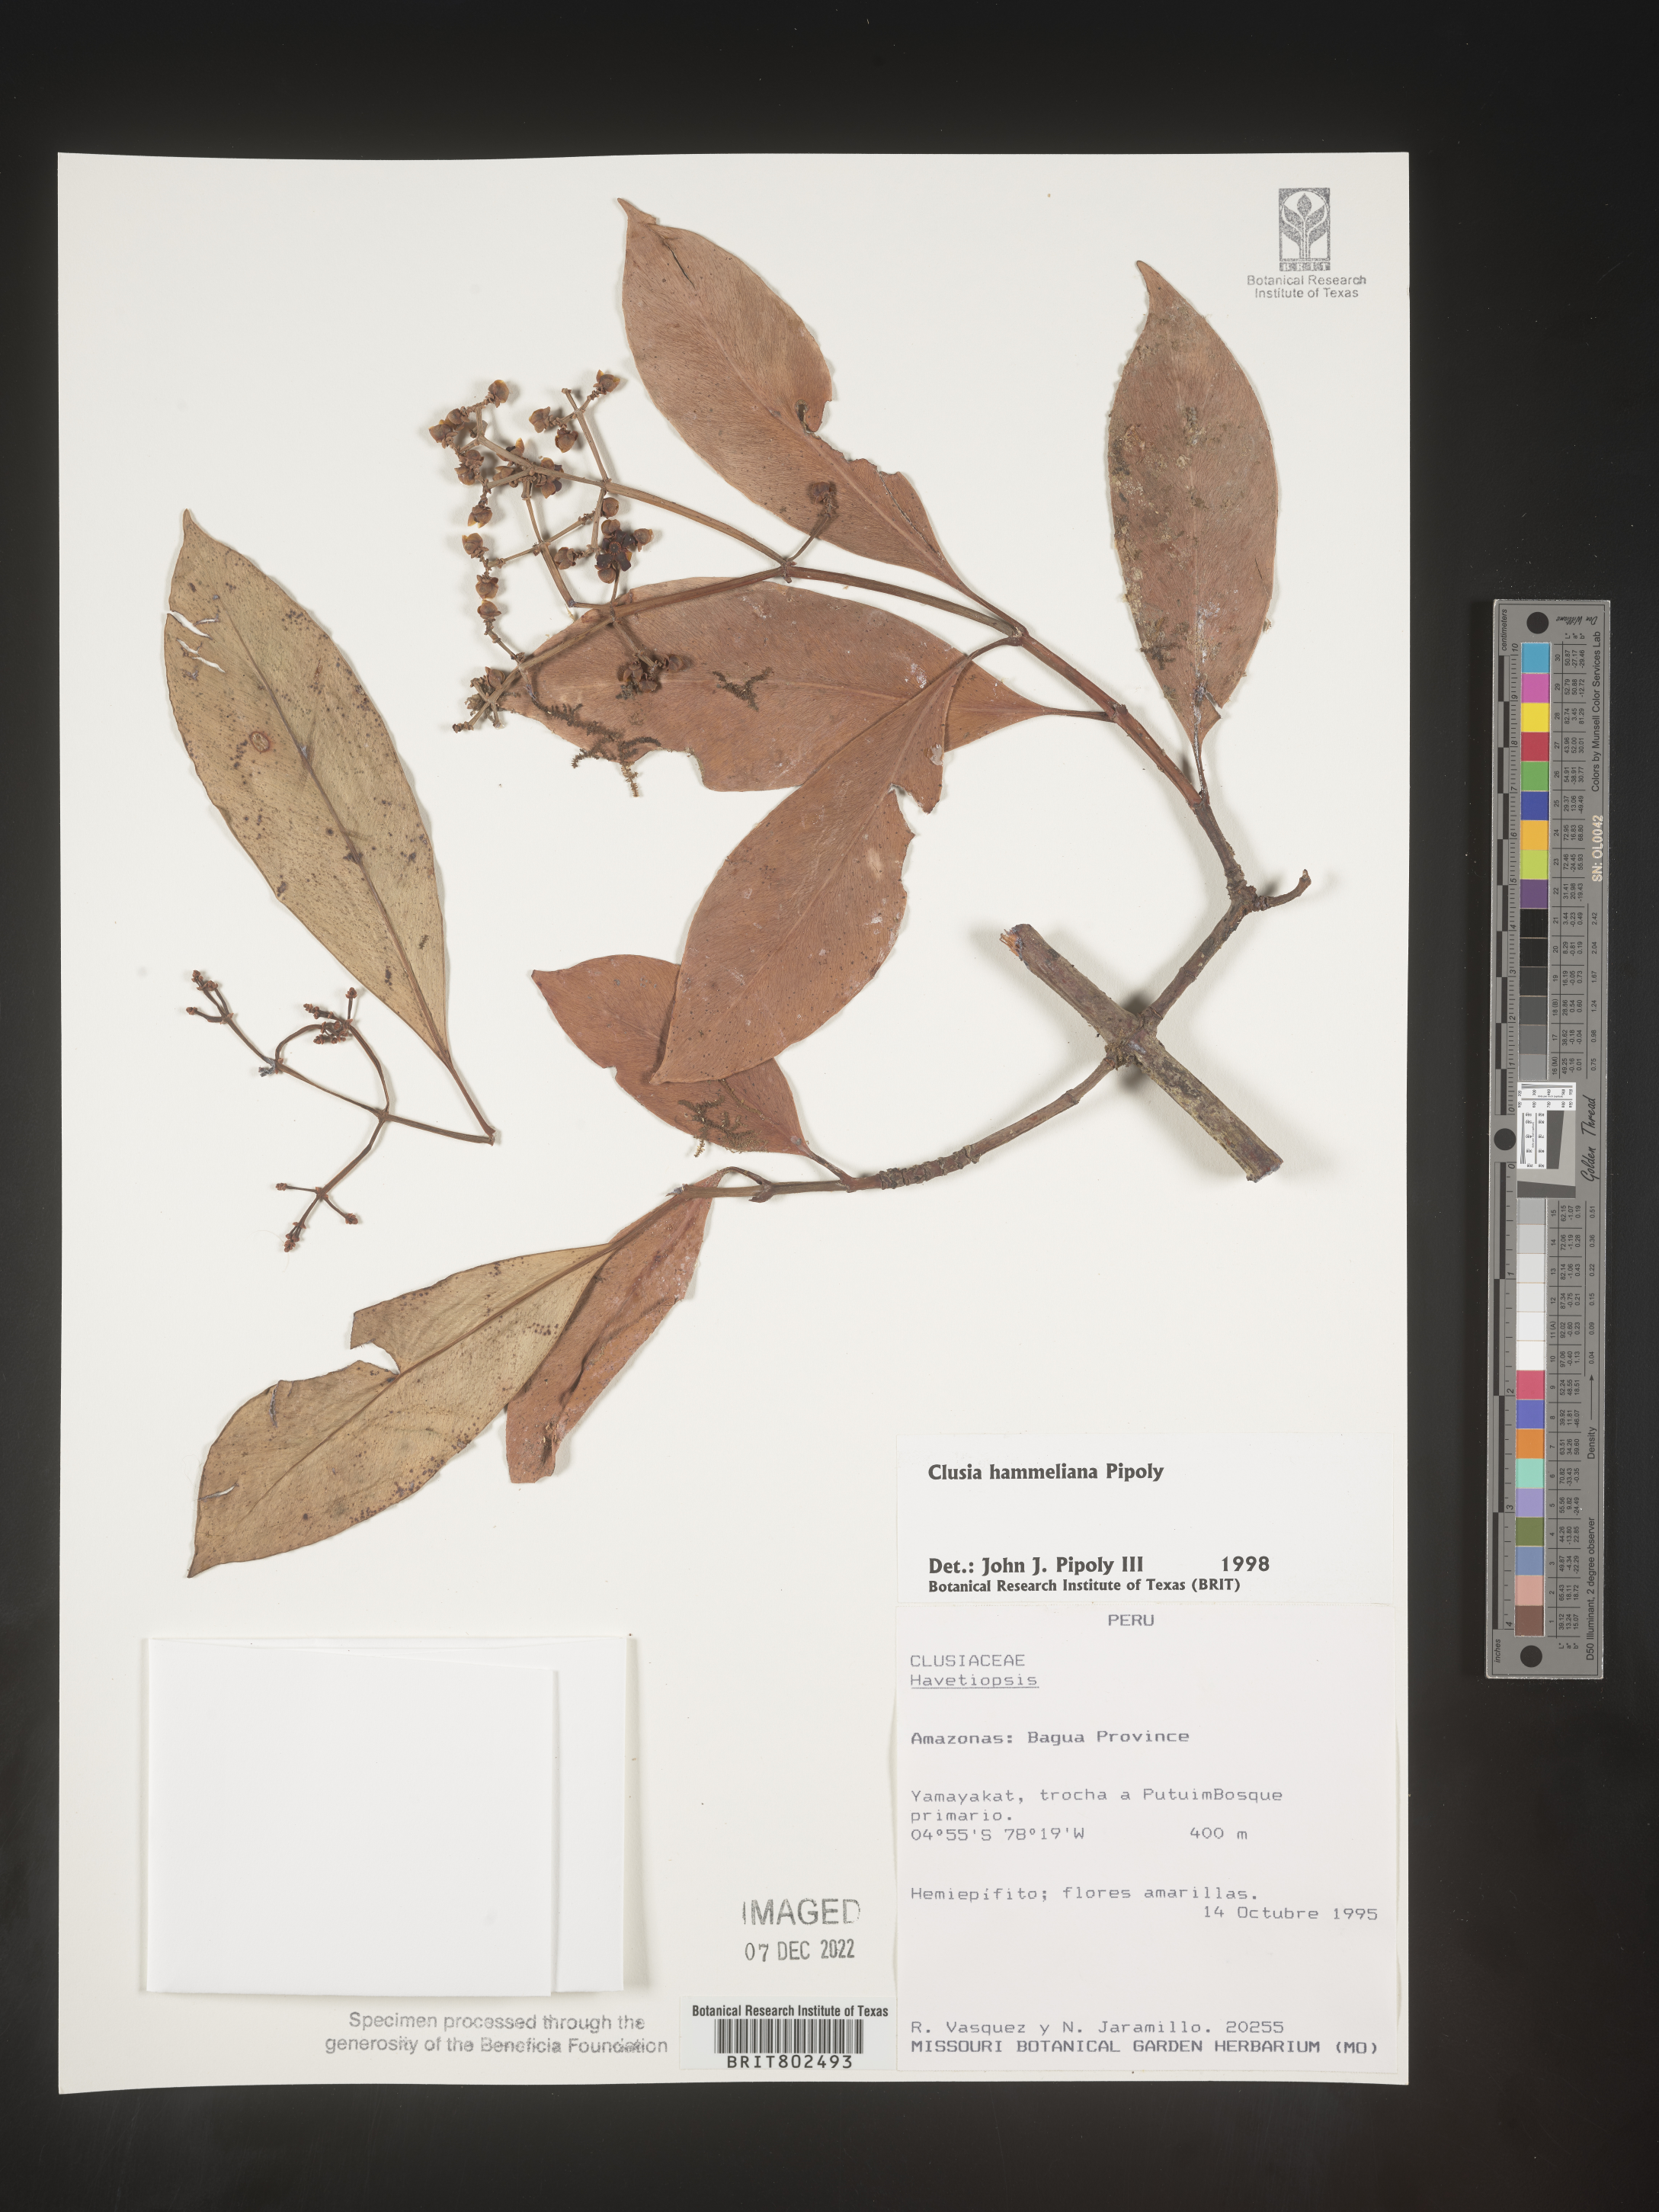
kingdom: Plantae
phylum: Tracheophyta
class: Magnoliopsida
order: Malpighiales
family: Clusiaceae
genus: Clusia
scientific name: Clusia hammeliana
